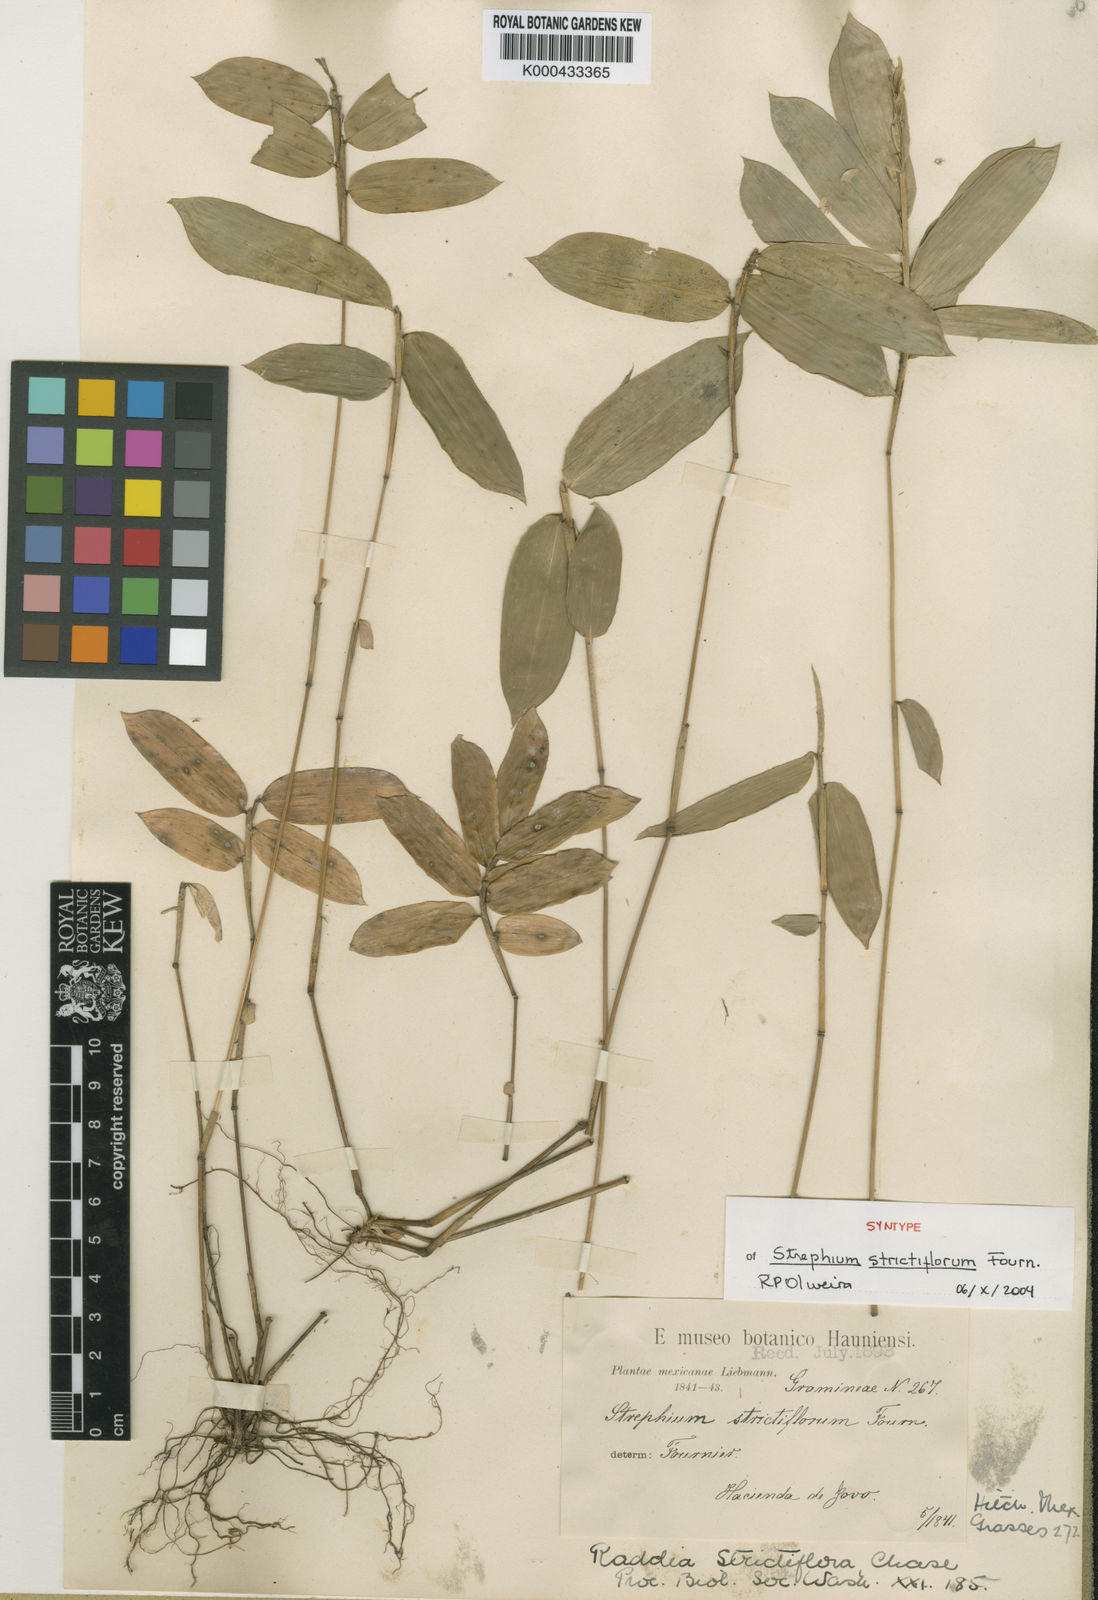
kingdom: Plantae
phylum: Tracheophyta
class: Liliopsida
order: Poales
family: Poaceae
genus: Cryptochloa
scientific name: Cryptochloa
